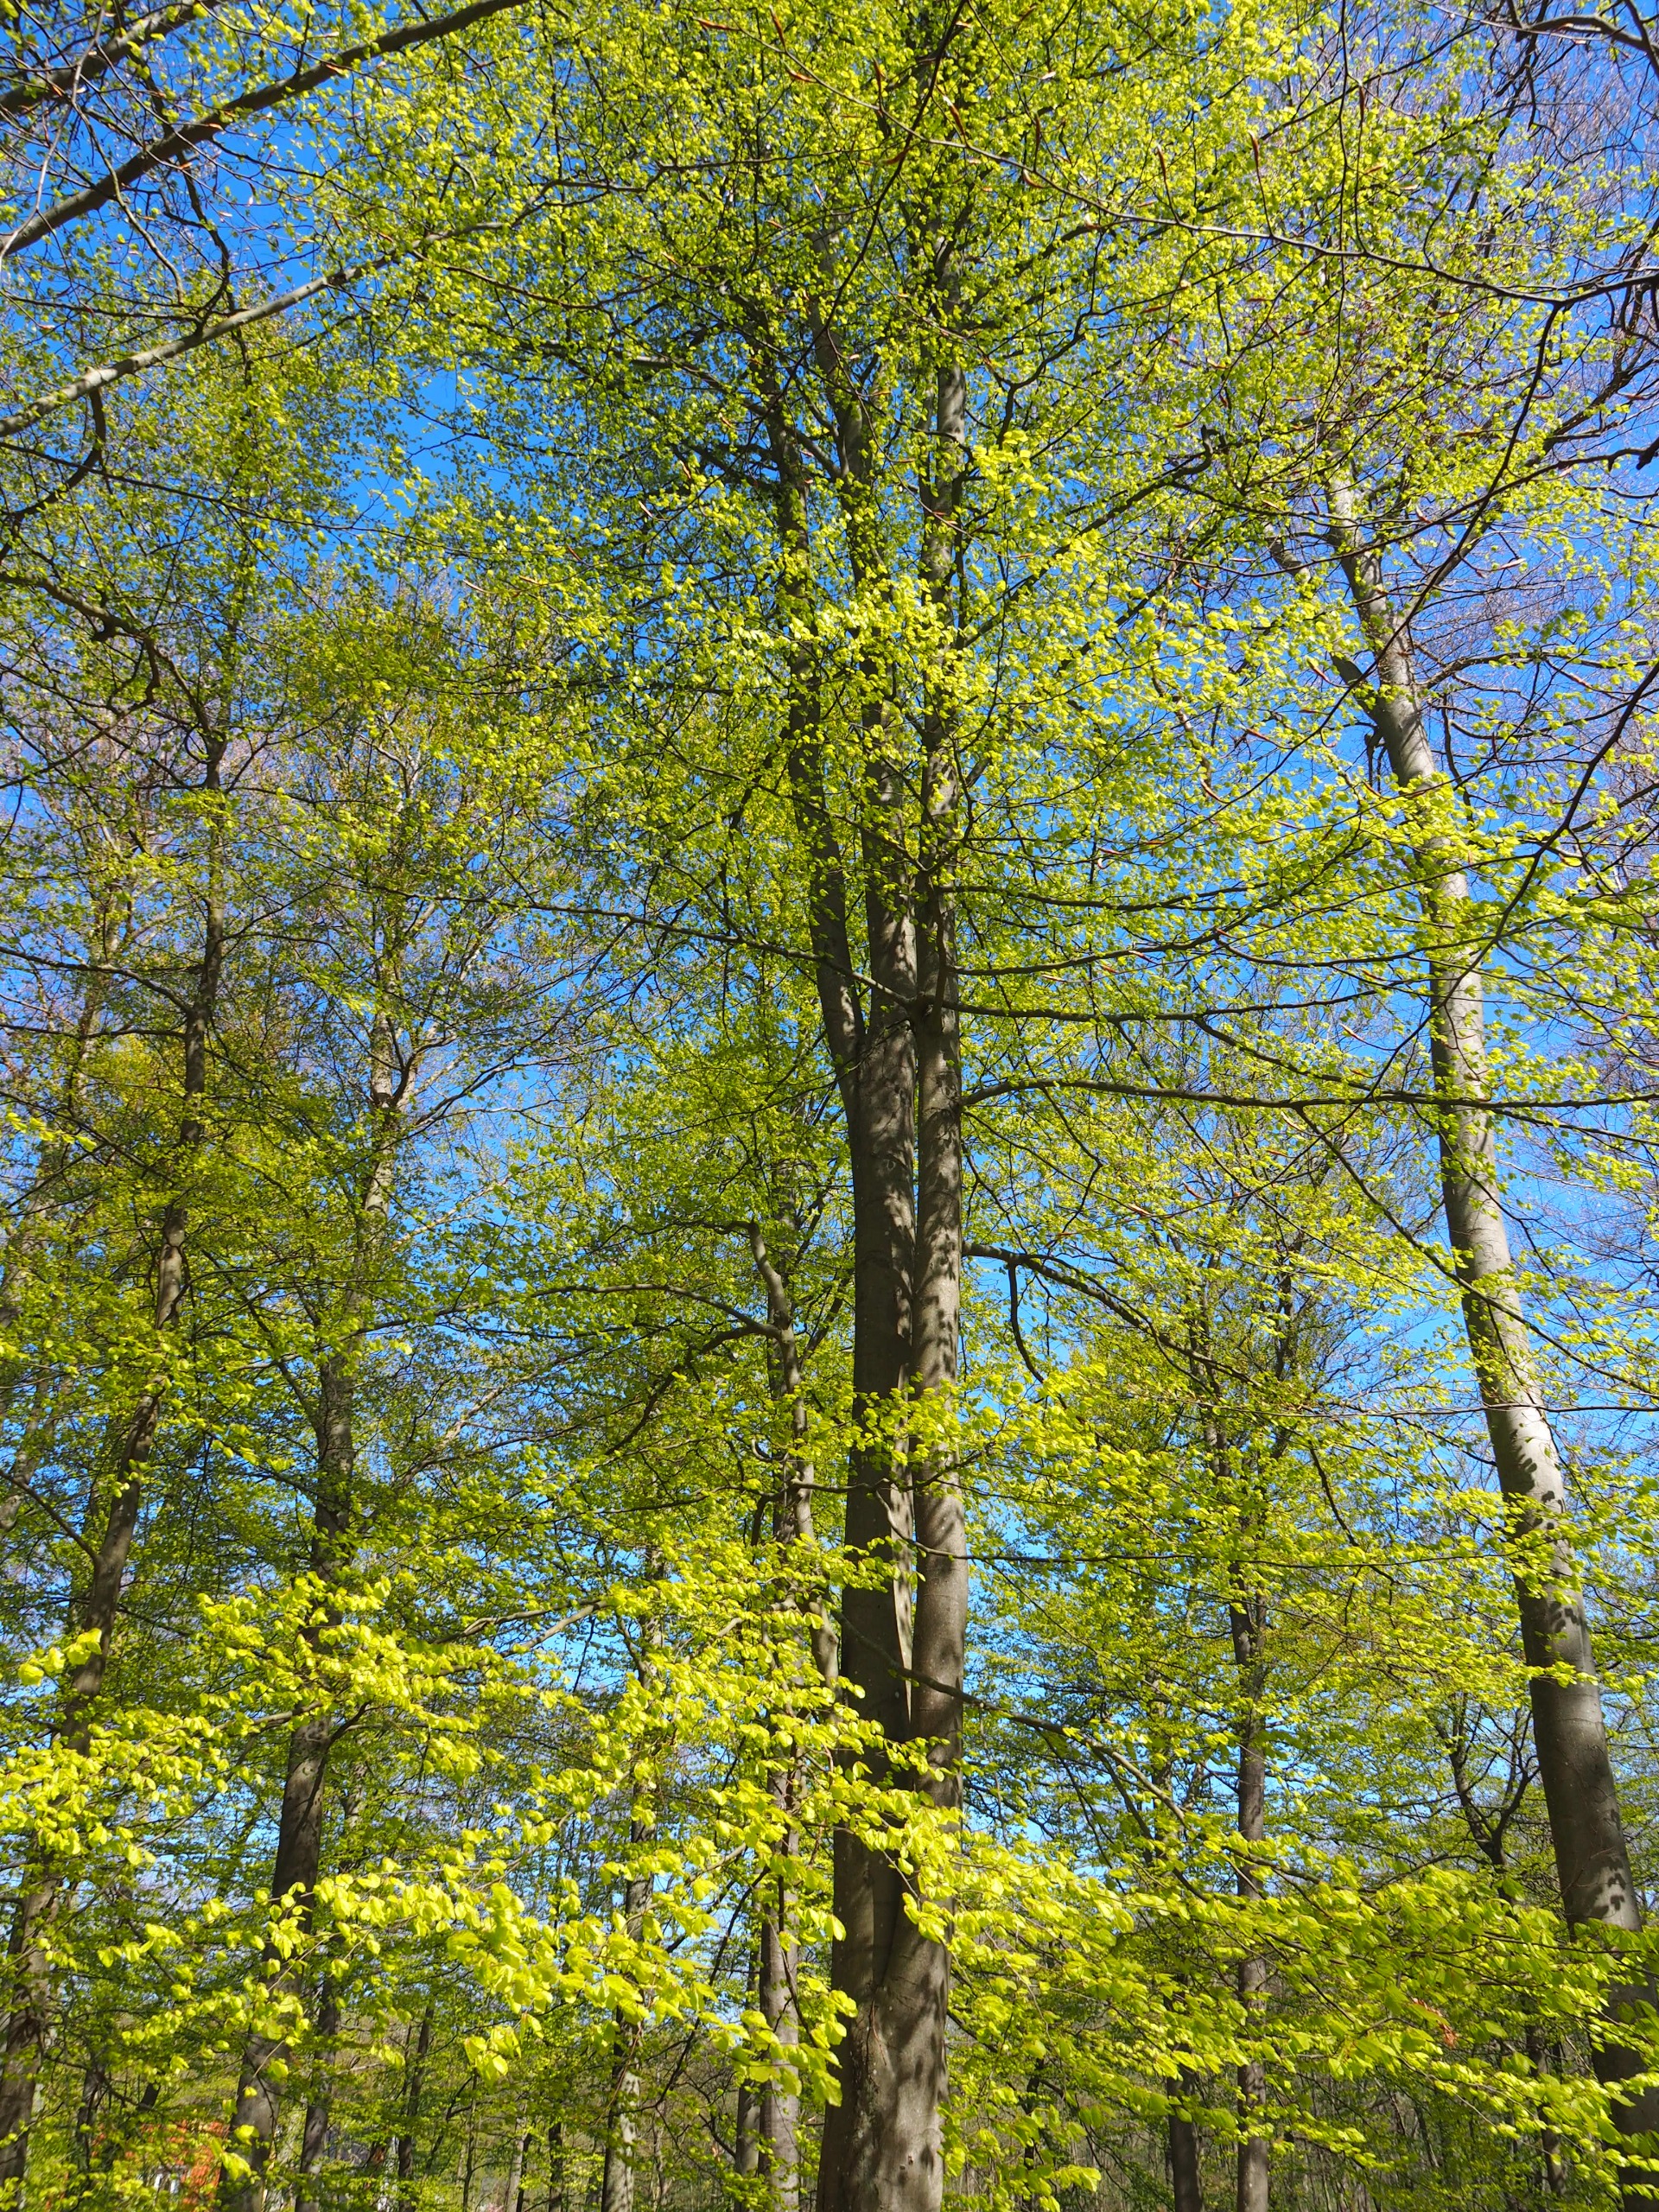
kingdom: Plantae
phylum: Tracheophyta
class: Magnoliopsida
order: Fagales
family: Fagaceae
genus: Fagus
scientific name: Fagus sylvatica
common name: Bøg
